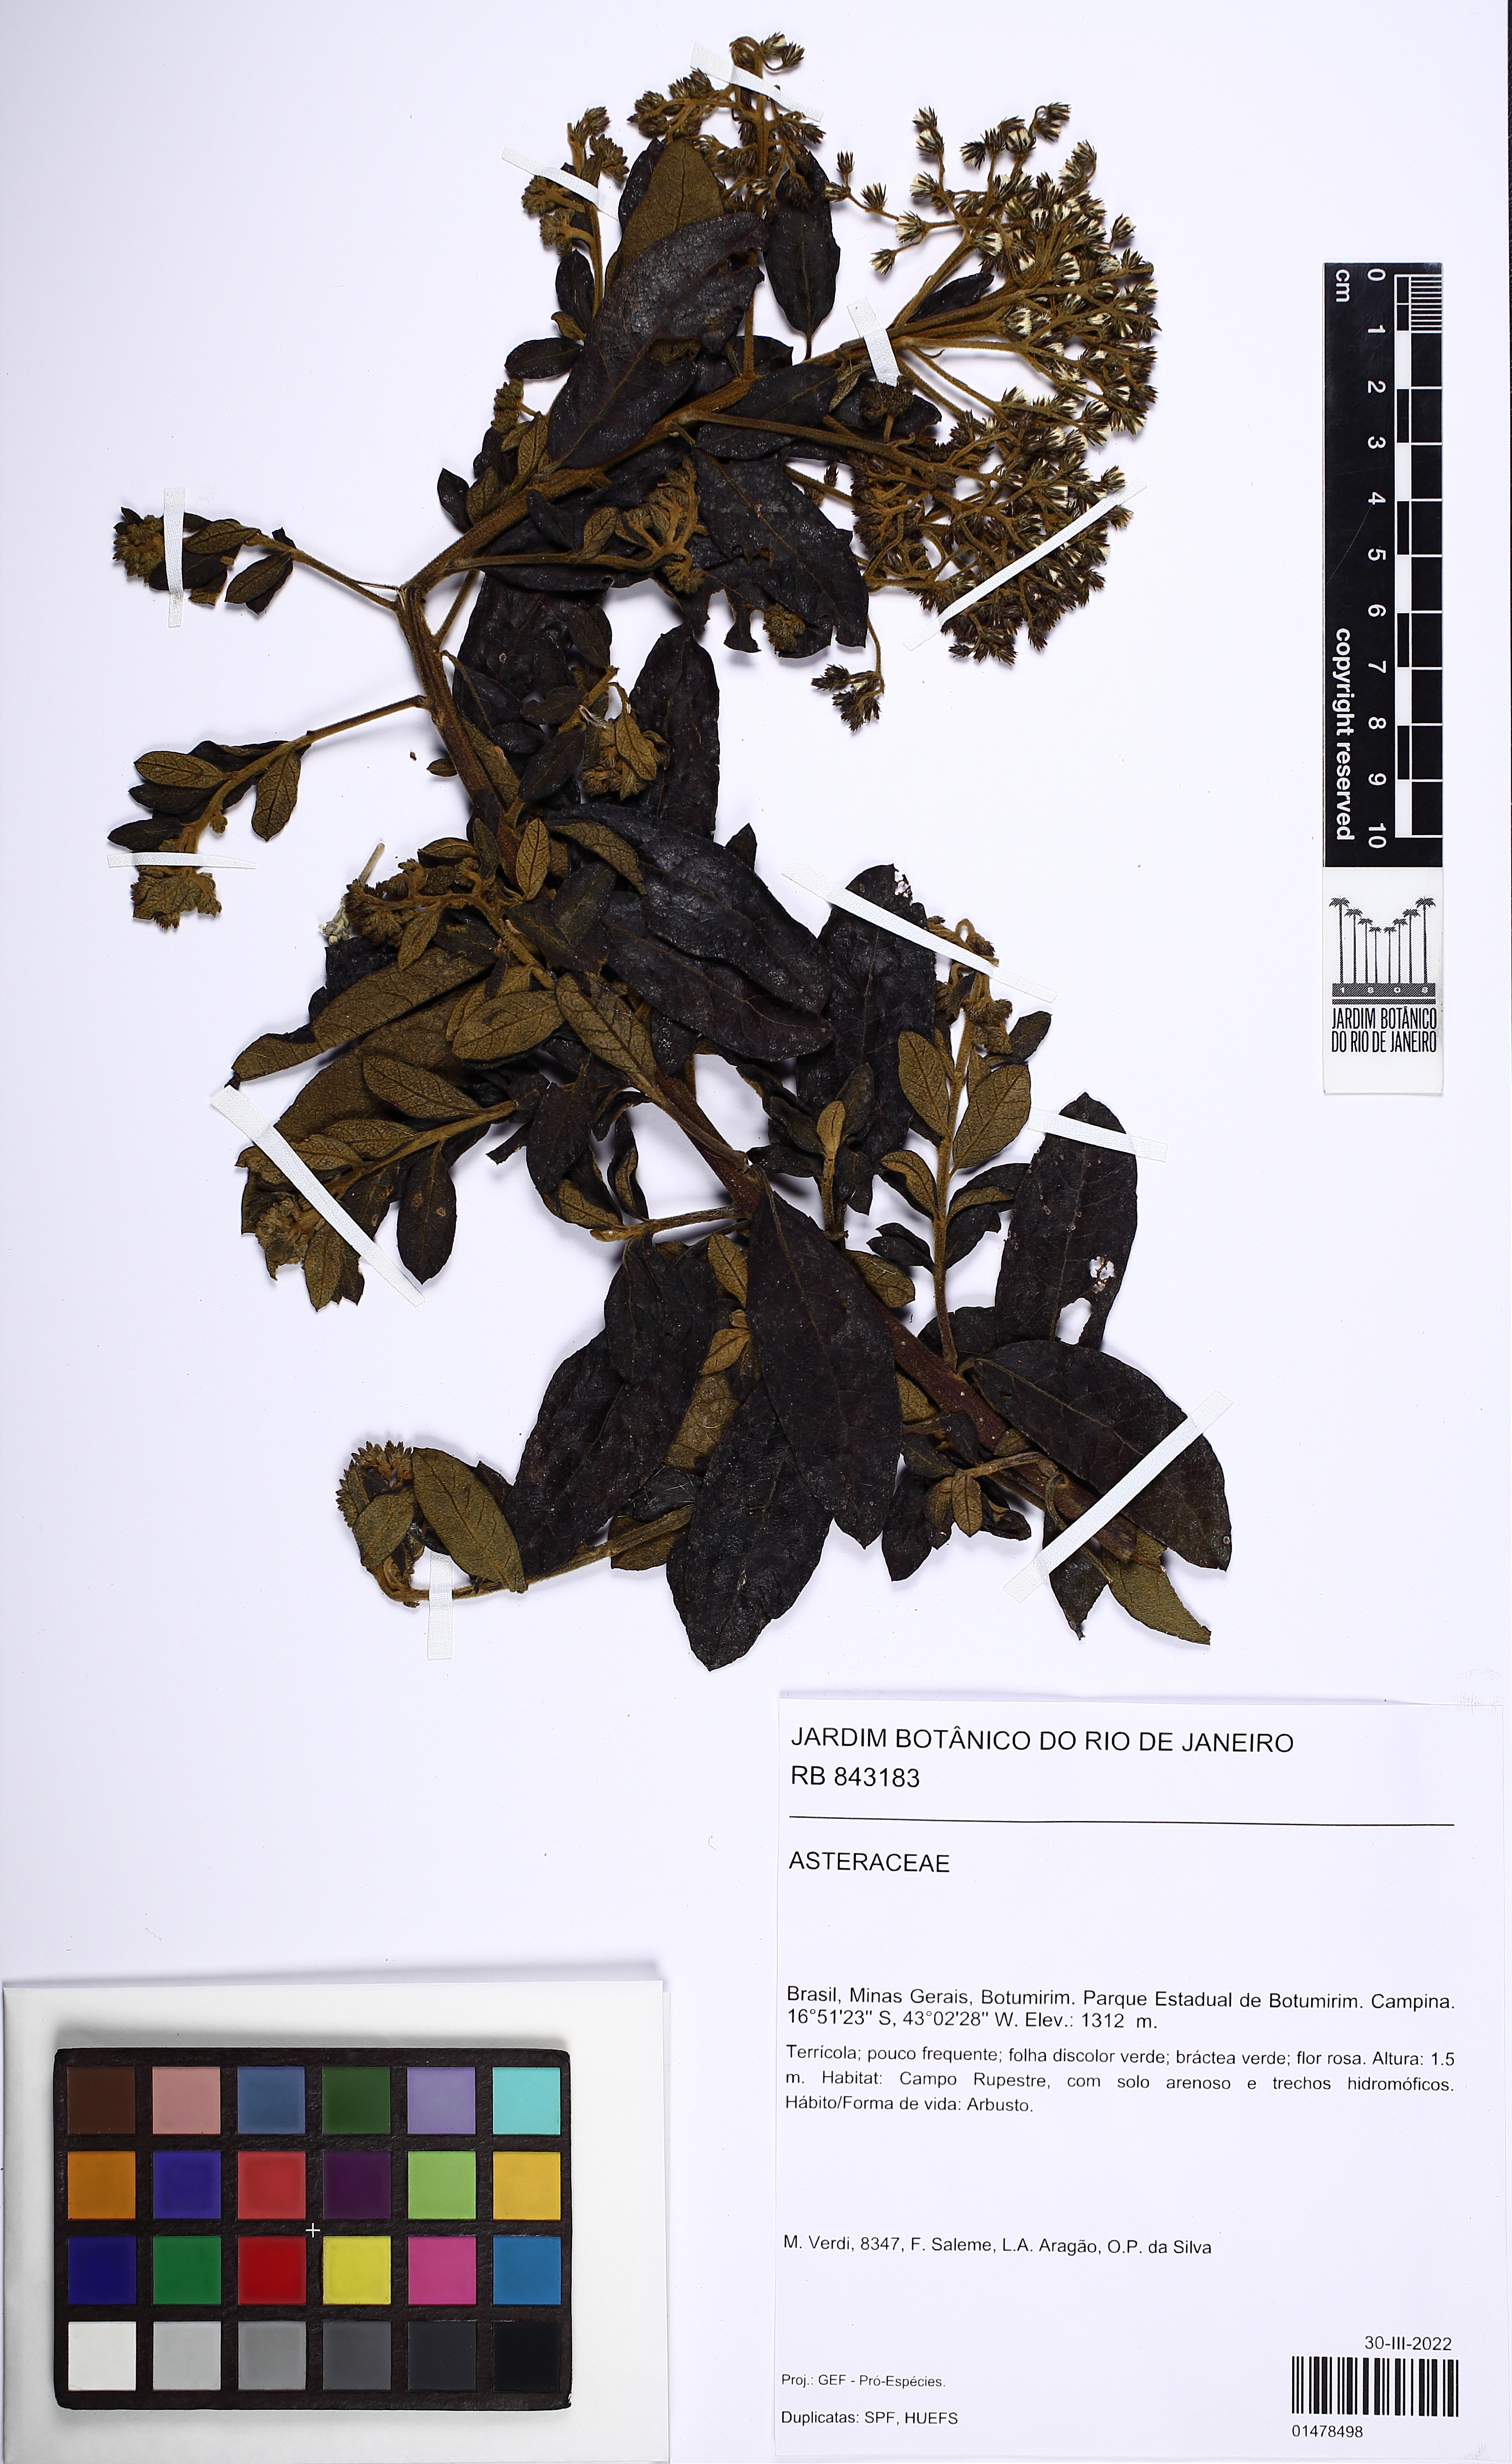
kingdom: Plantae
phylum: Tracheophyta
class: Magnoliopsida
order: Asterales
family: Asteraceae
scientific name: Asteraceae
